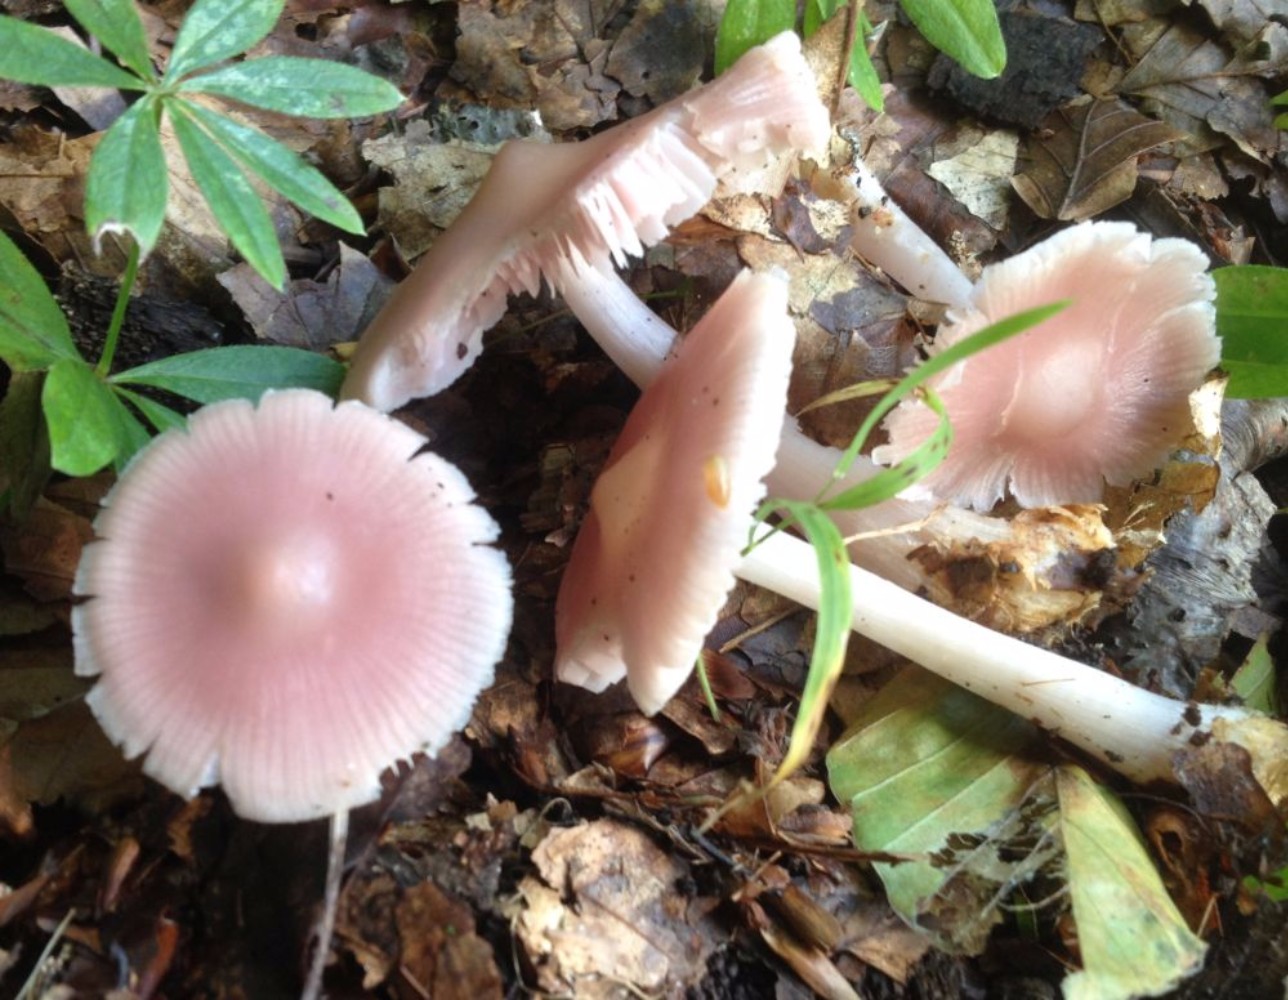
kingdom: Fungi
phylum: Basidiomycota
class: Agaricomycetes
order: Agaricales
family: Mycenaceae
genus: Mycena
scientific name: Mycena rosea
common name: rosa huesvamp
